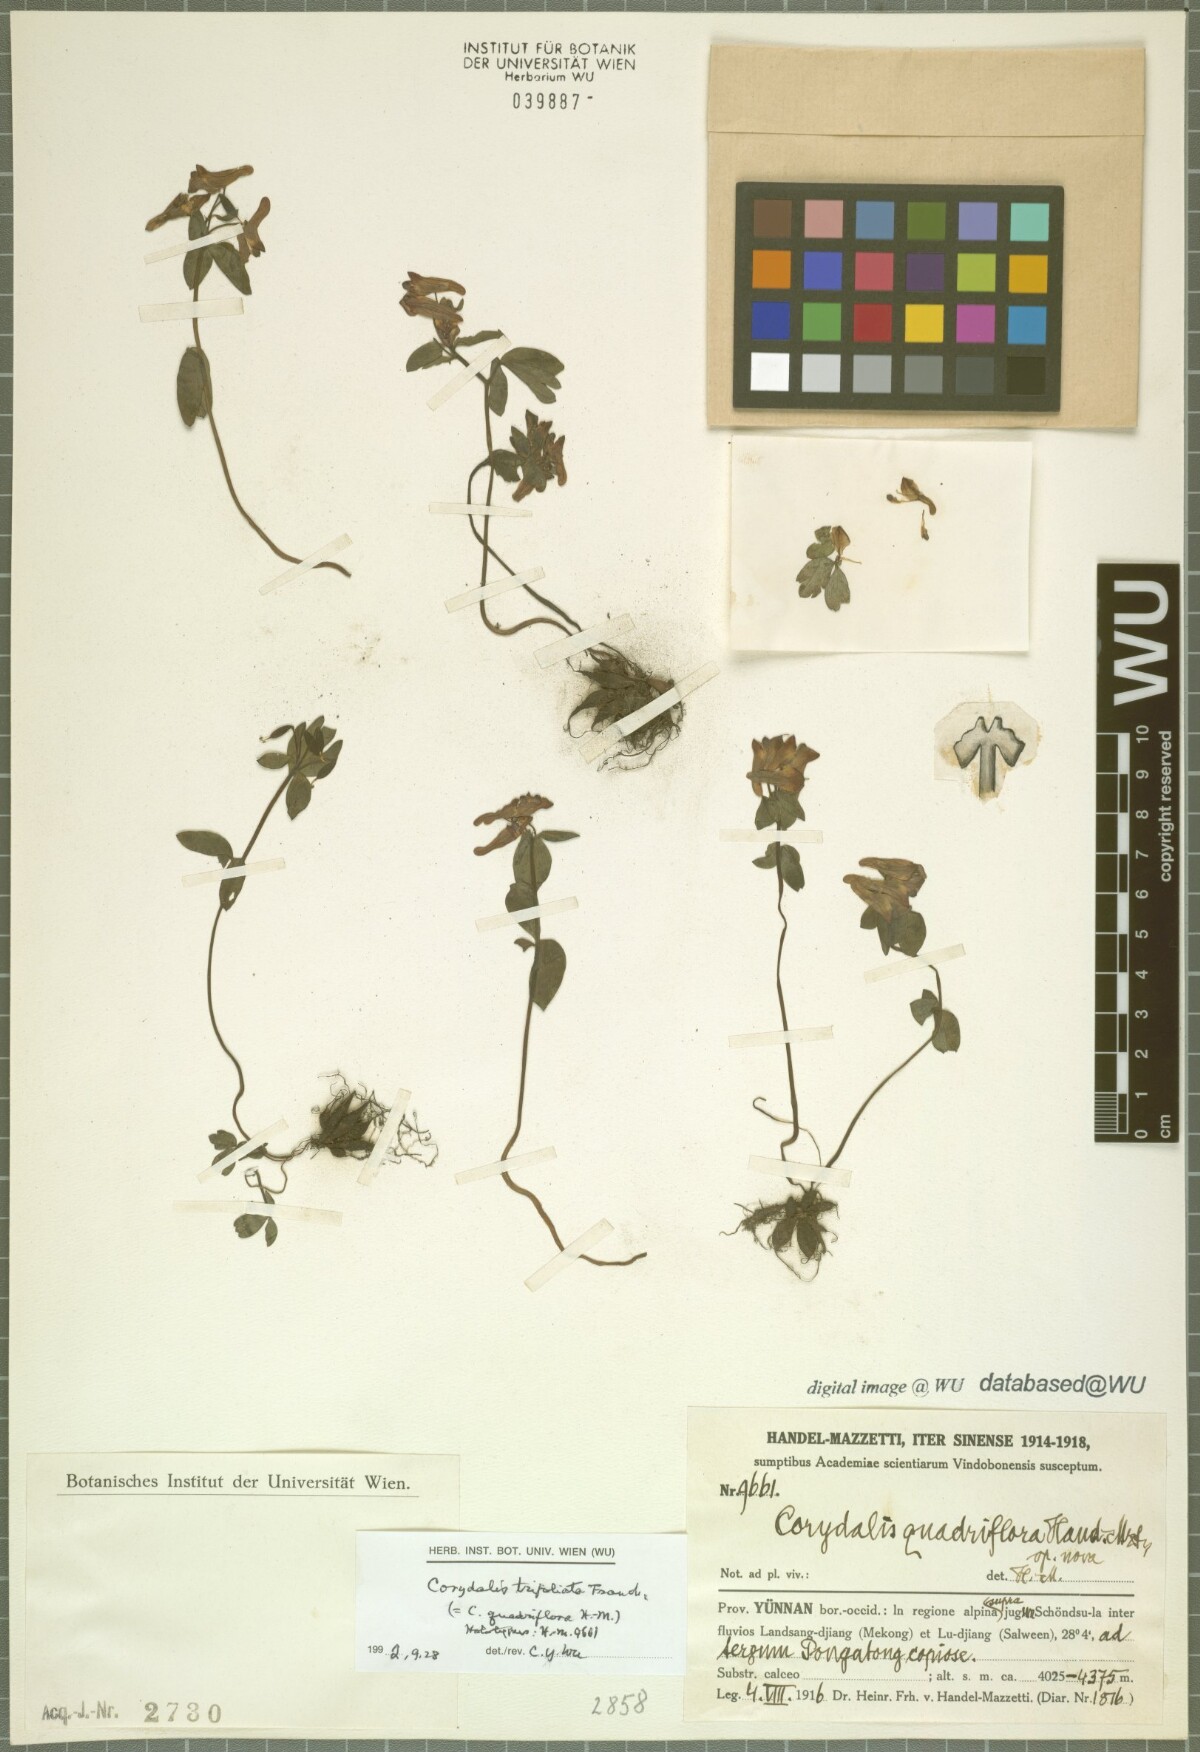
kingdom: Plantae
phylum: Tracheophyta
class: Magnoliopsida
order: Ranunculales
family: Papaveraceae
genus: Corydalis
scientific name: Corydalis trifoliata
